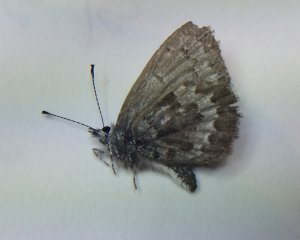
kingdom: Animalia
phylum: Arthropoda
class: Insecta
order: Lepidoptera
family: Lycaenidae
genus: Celastrina
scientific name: Celastrina lucia
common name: Northern Spring Azure
